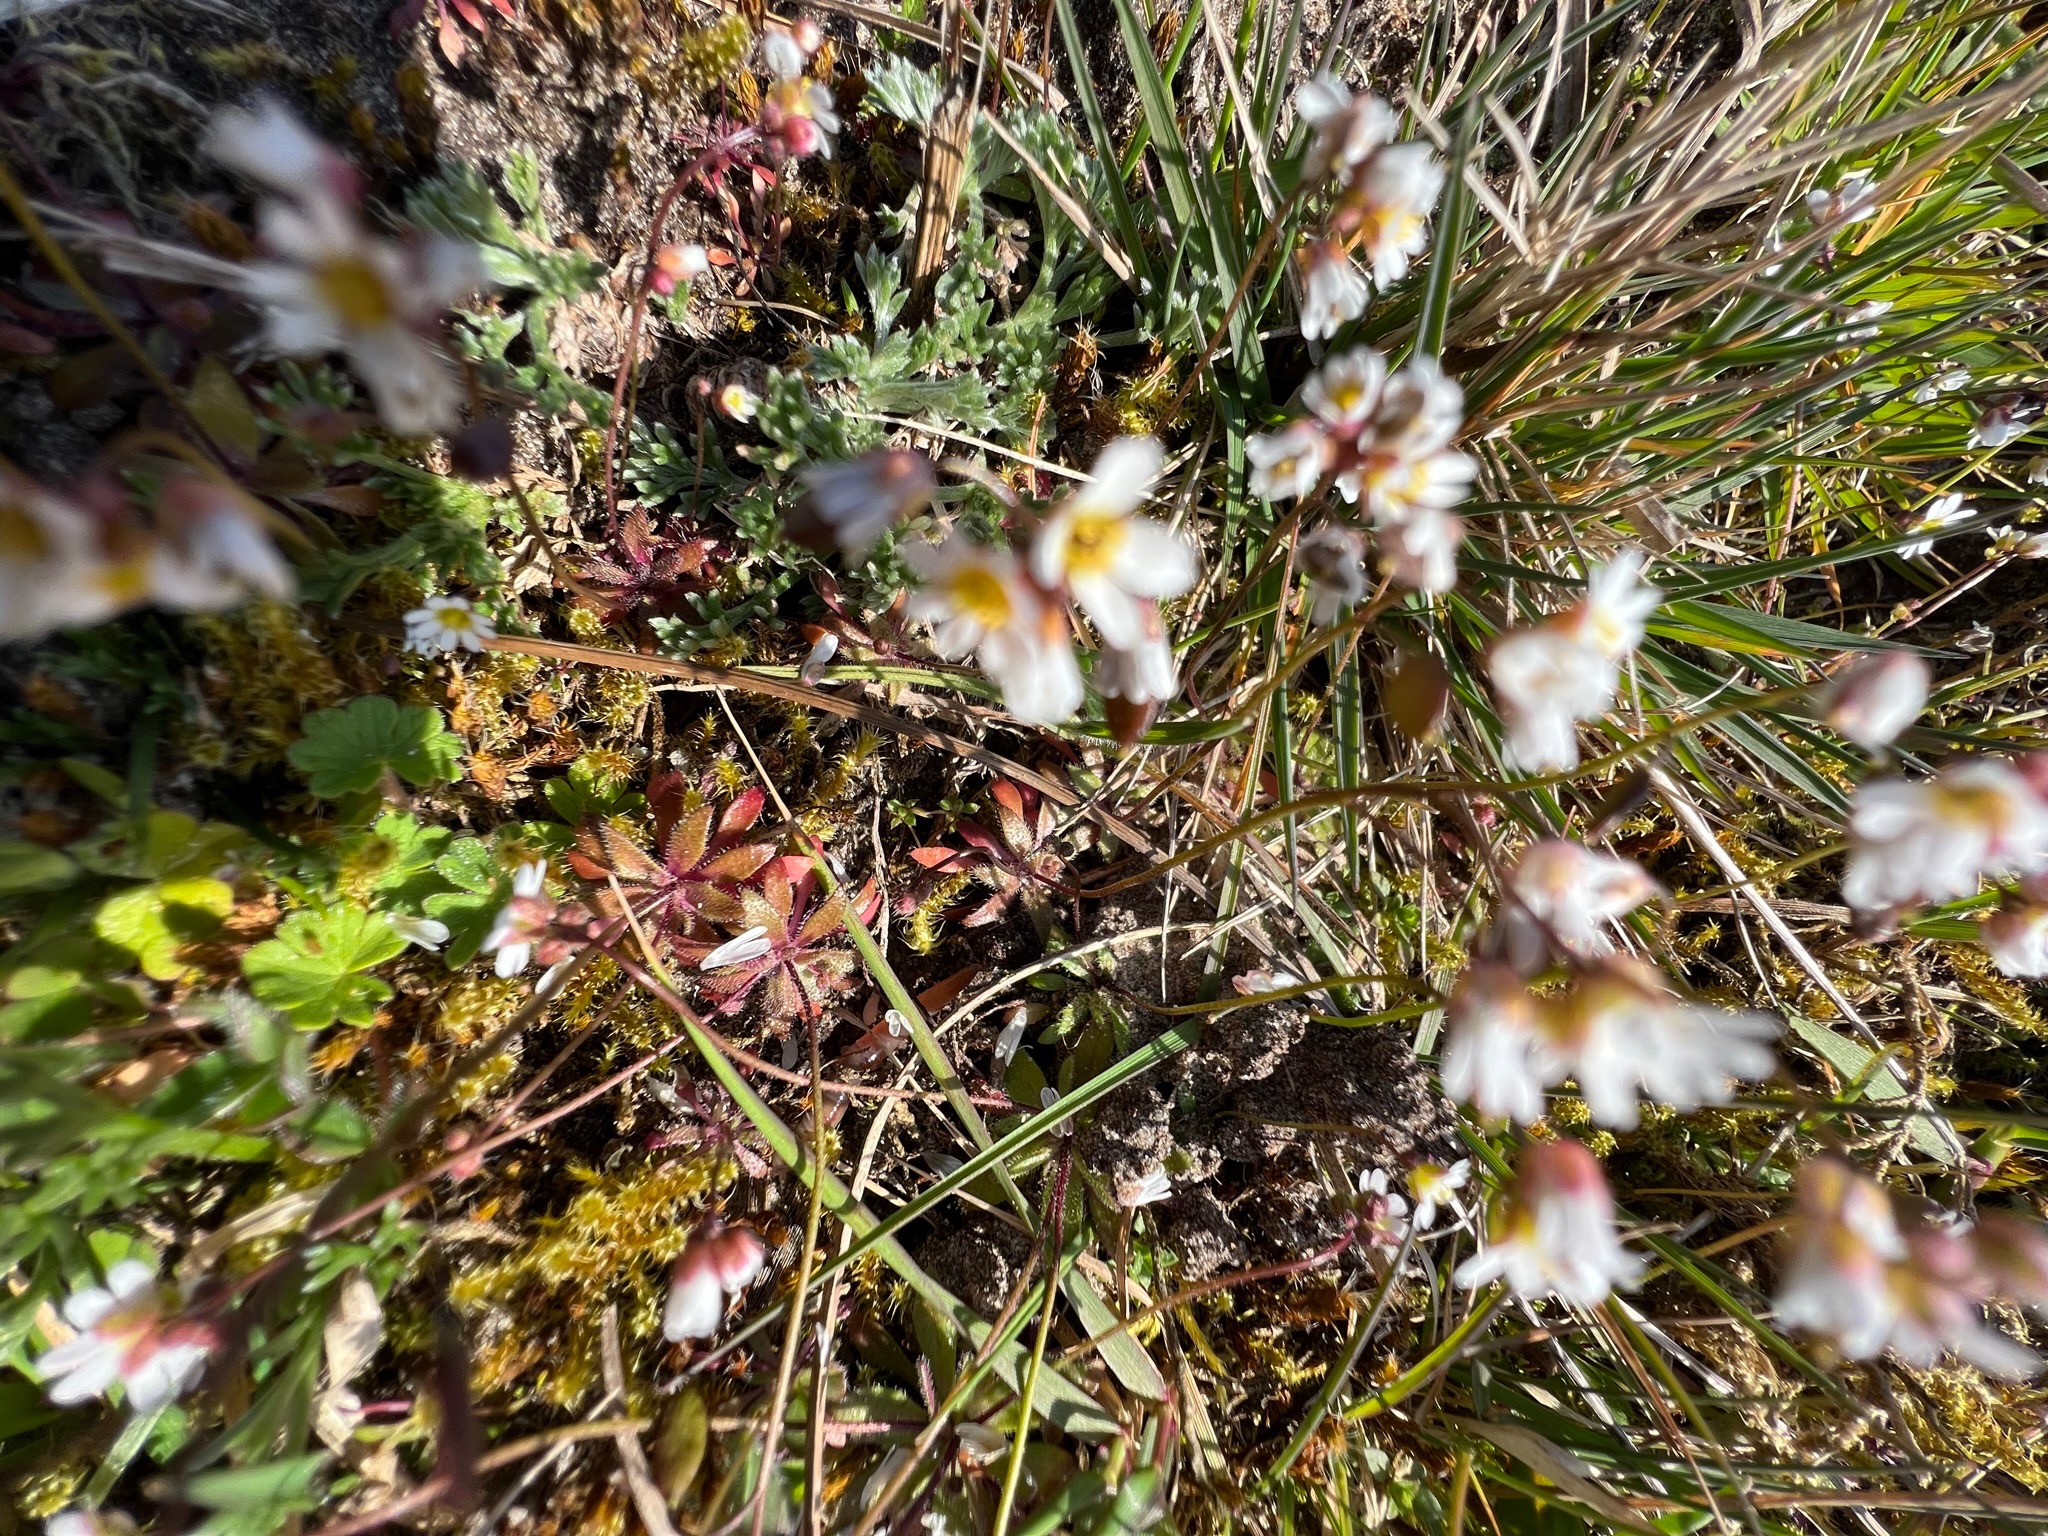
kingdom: Plantae
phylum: Tracheophyta
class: Magnoliopsida
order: Brassicales
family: Brassicaceae
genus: Draba
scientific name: Draba verna
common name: Vår-gæslingeblomst
